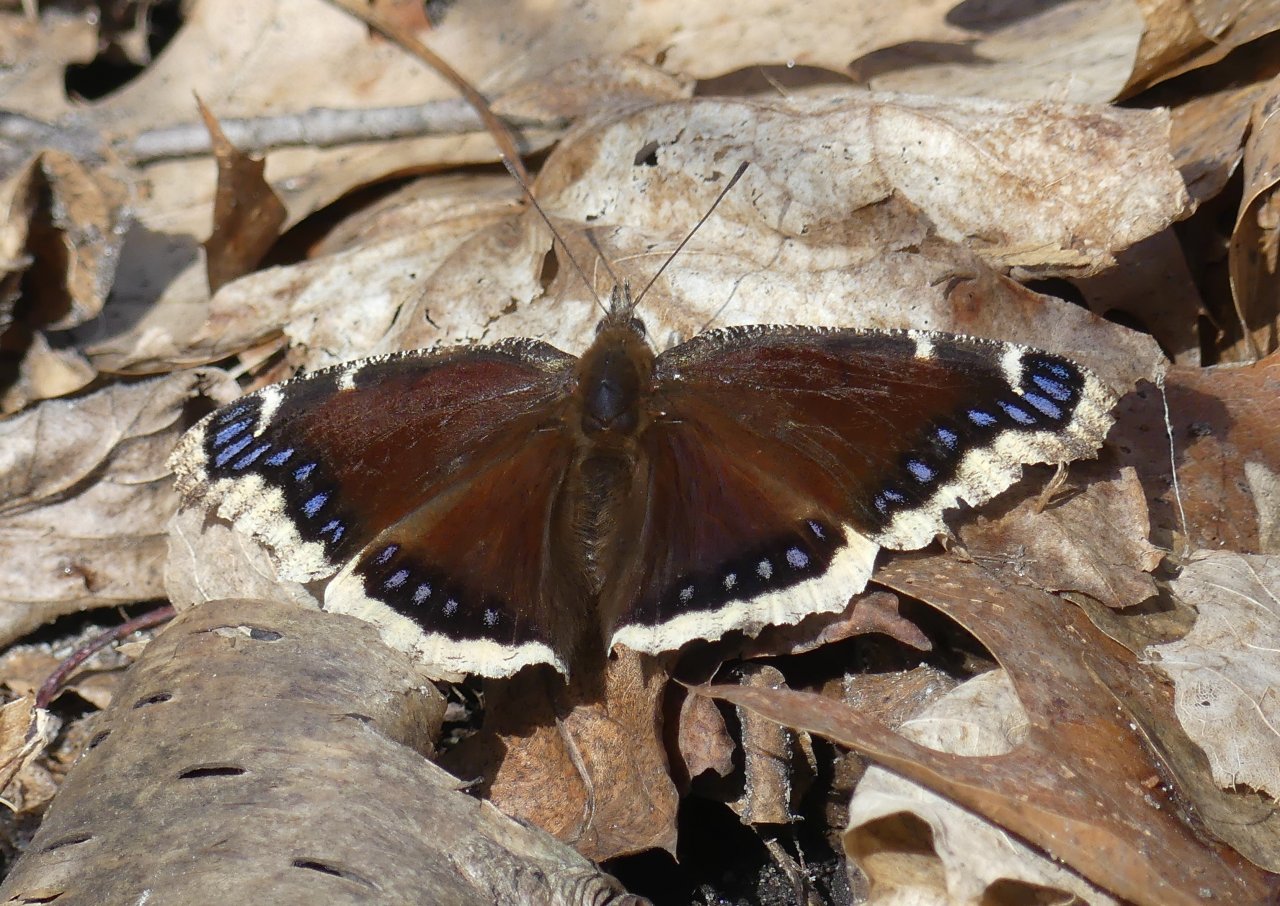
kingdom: Animalia
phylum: Arthropoda
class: Insecta
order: Lepidoptera
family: Nymphalidae
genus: Nymphalis
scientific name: Nymphalis antiopa
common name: Mourning Cloak
